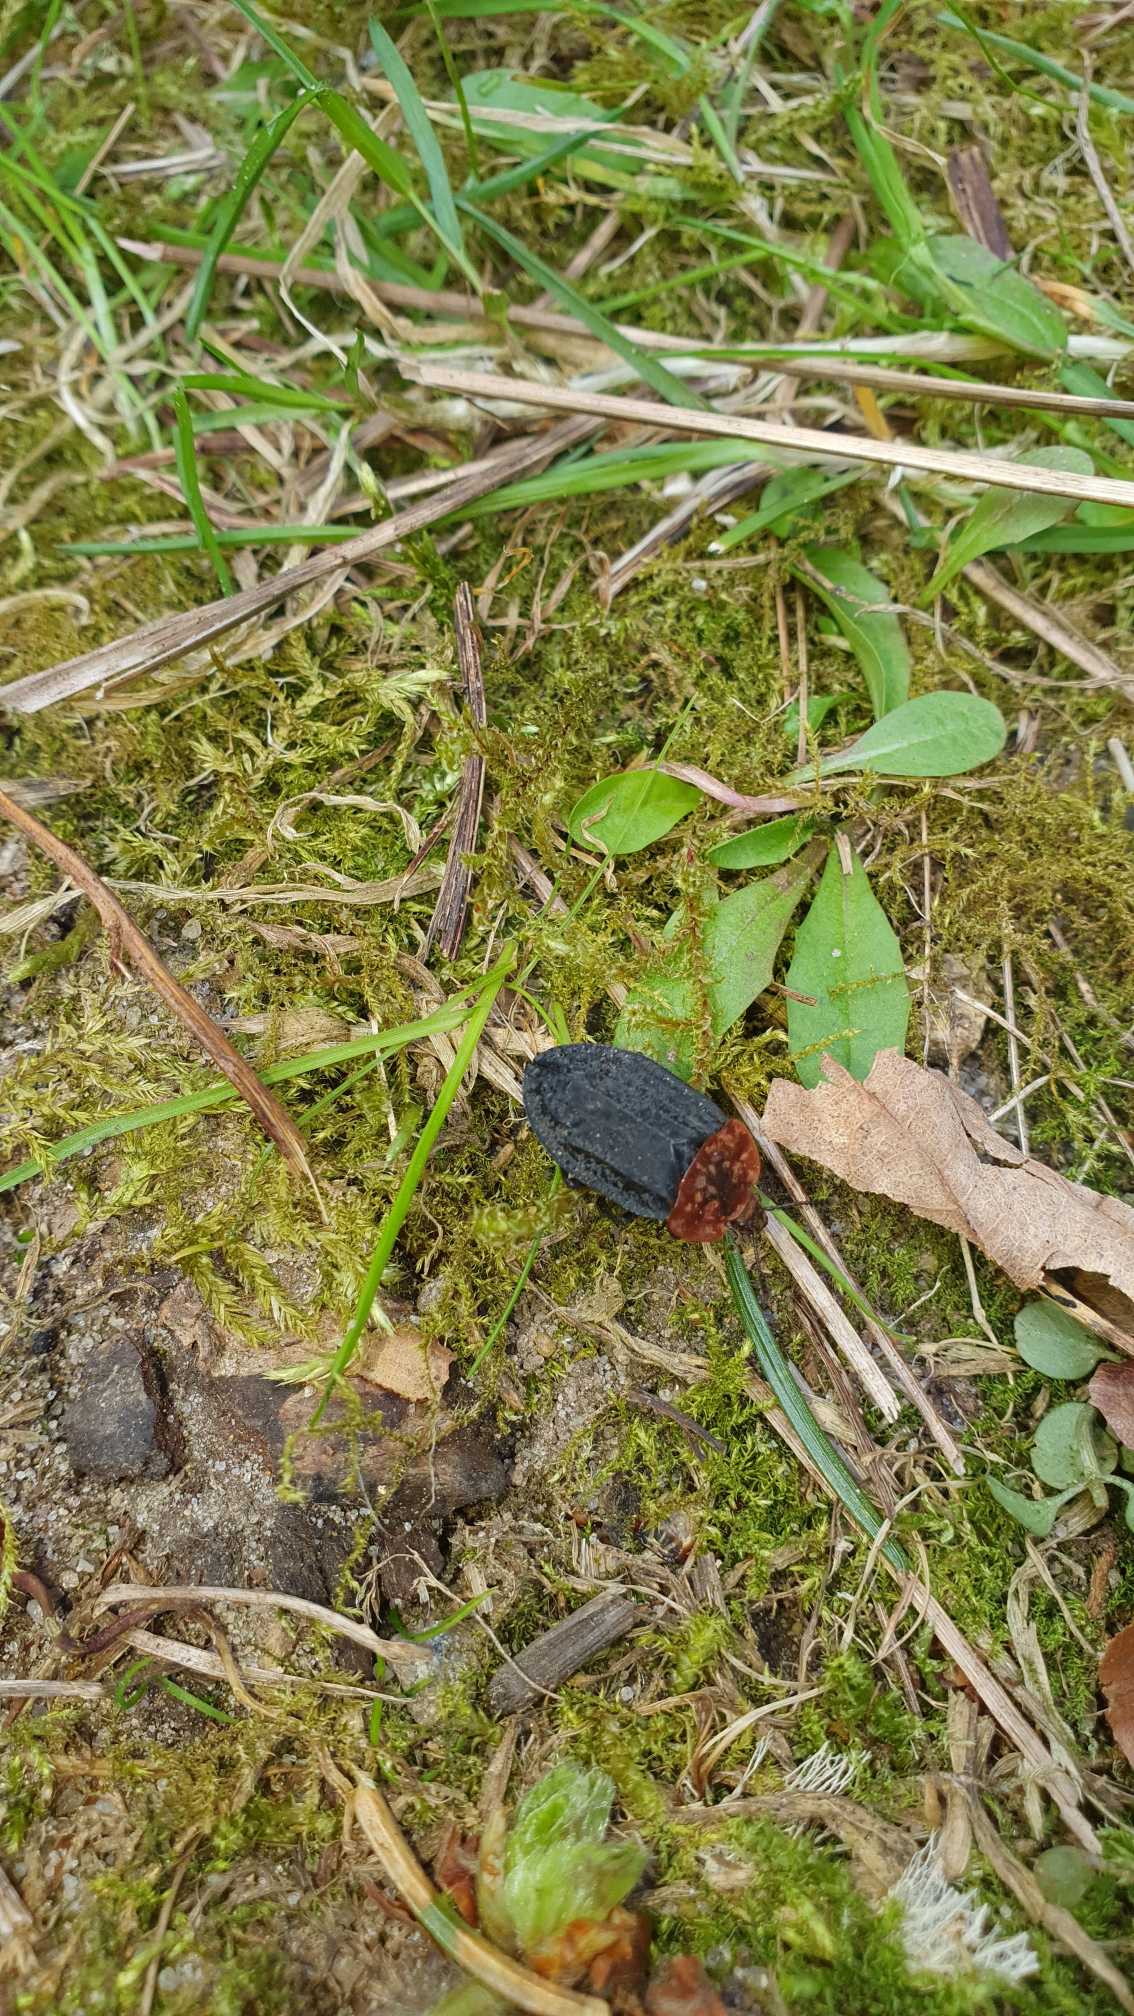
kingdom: Animalia
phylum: Arthropoda
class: Insecta
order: Coleoptera
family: Staphylinidae
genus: Oiceoptoma
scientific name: Oiceoptoma thoracicum
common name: Rødbrystet ådselbille
